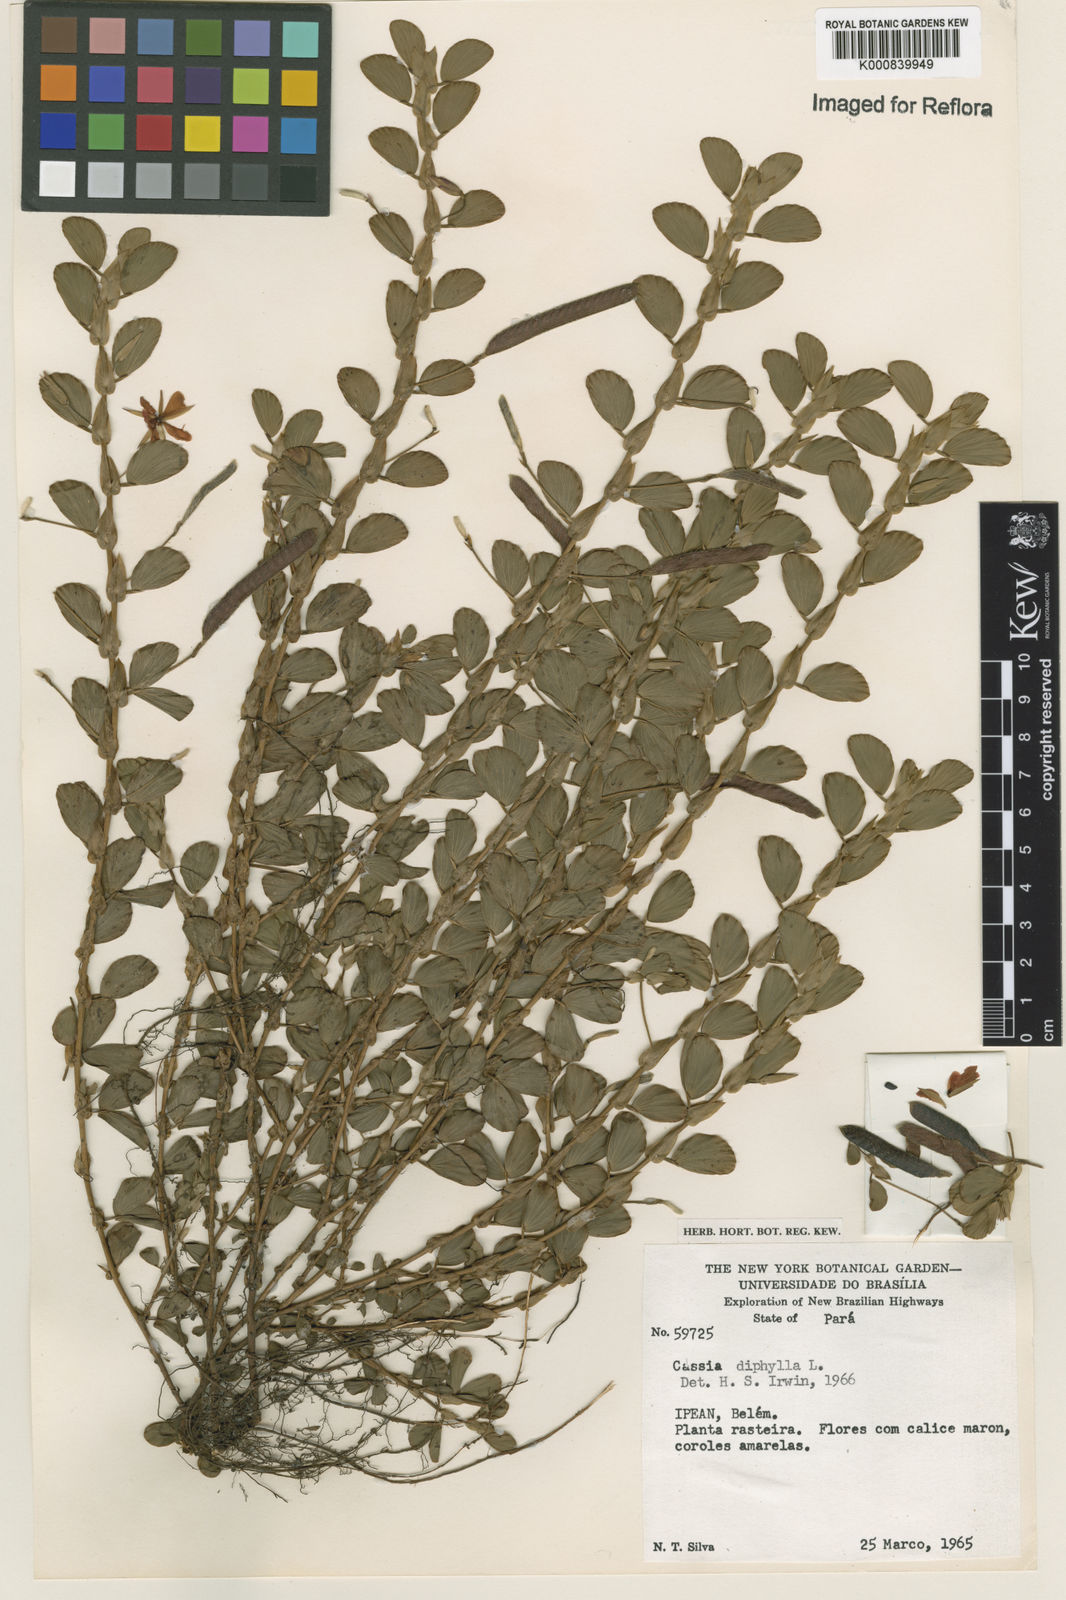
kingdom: Plantae
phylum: Tracheophyta
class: Magnoliopsida
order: Fabales
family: Fabaceae
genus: Chamaecrista
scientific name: Chamaecrista diphylla
